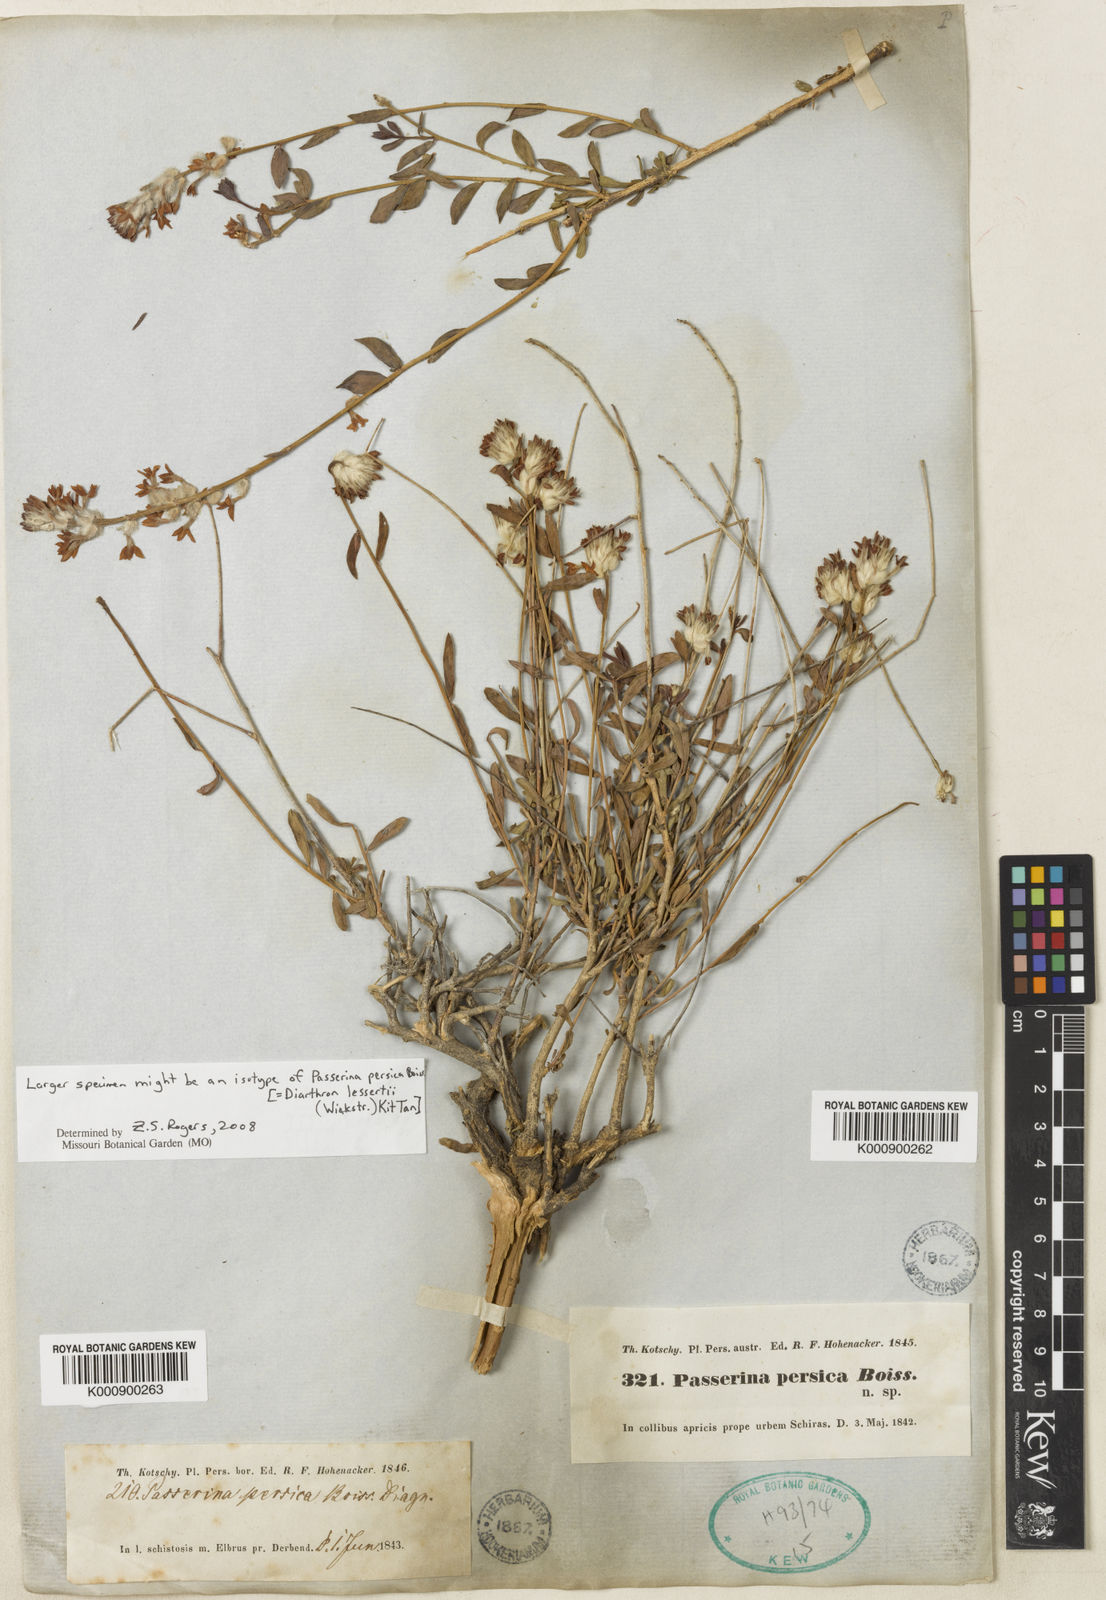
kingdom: Plantae
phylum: Tracheophyta
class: Magnoliopsida
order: Malvales
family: Thymelaeaceae
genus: Diarthron
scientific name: Diarthron lessertii
